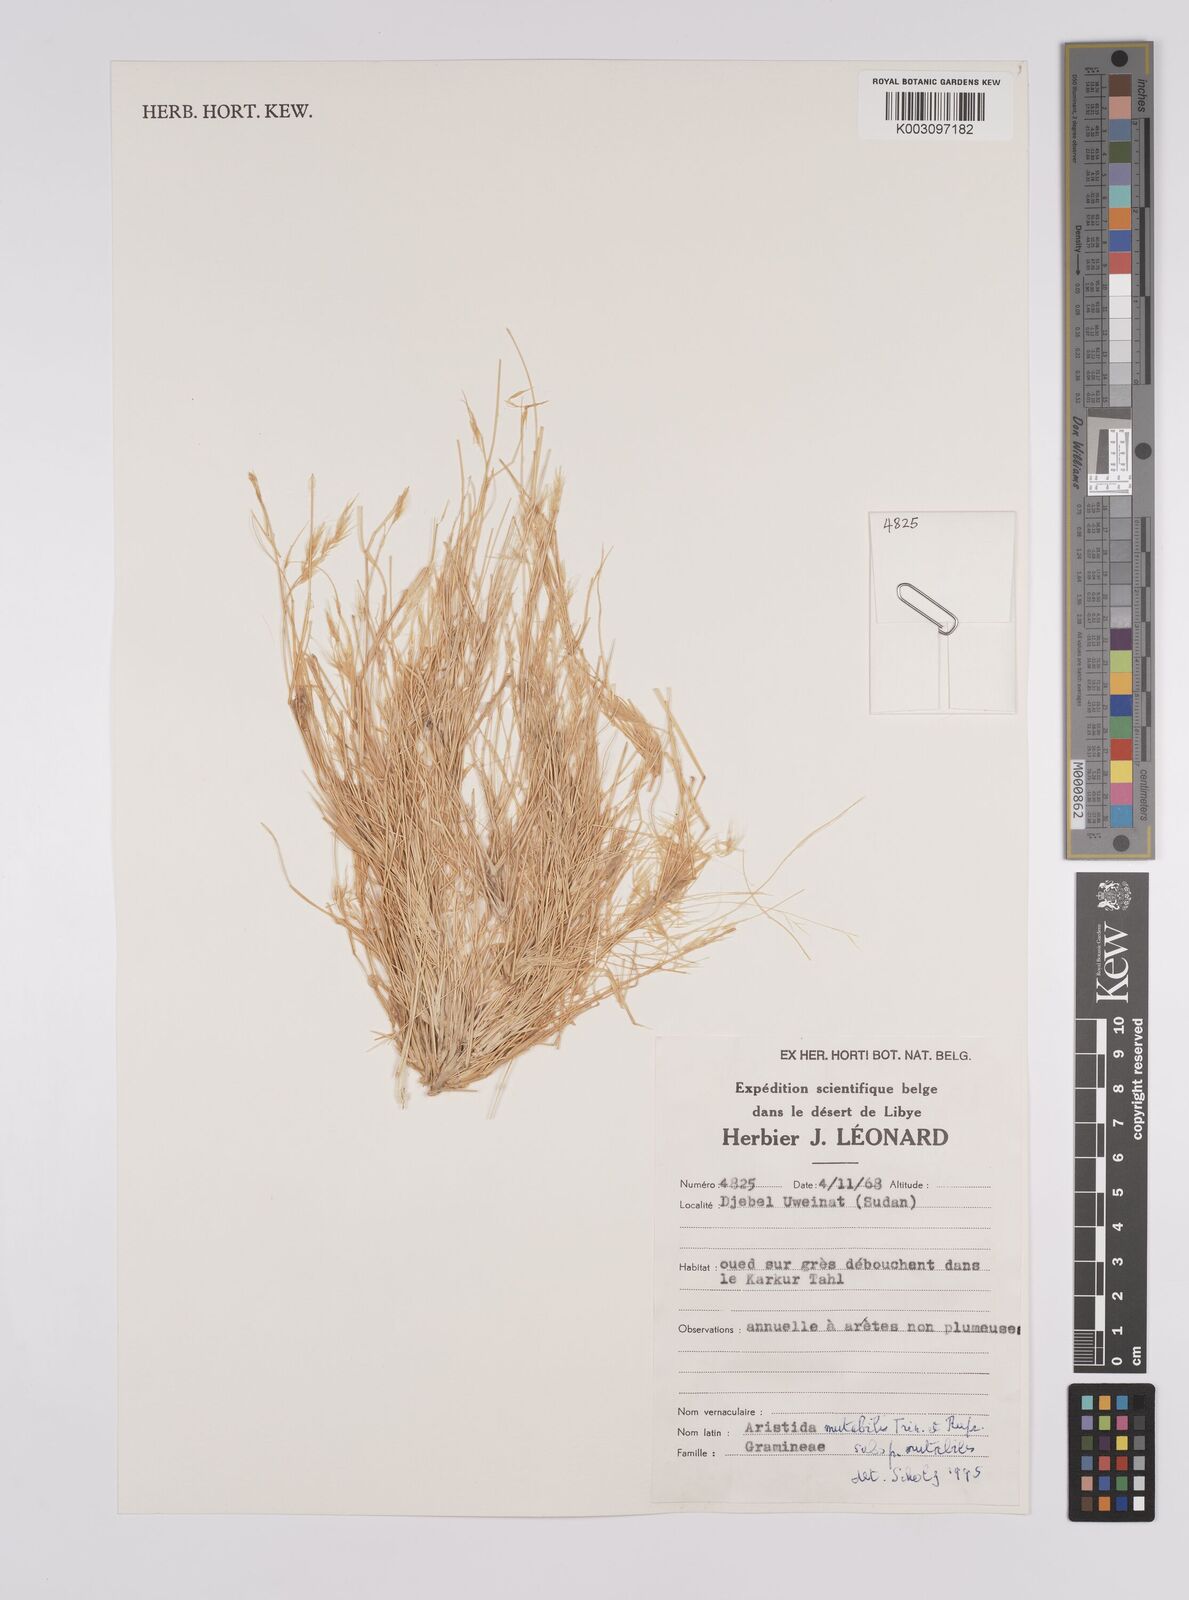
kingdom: Plantae
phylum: Tracheophyta
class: Liliopsida
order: Poales
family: Poaceae
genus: Aristida
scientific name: Aristida mutabilis
